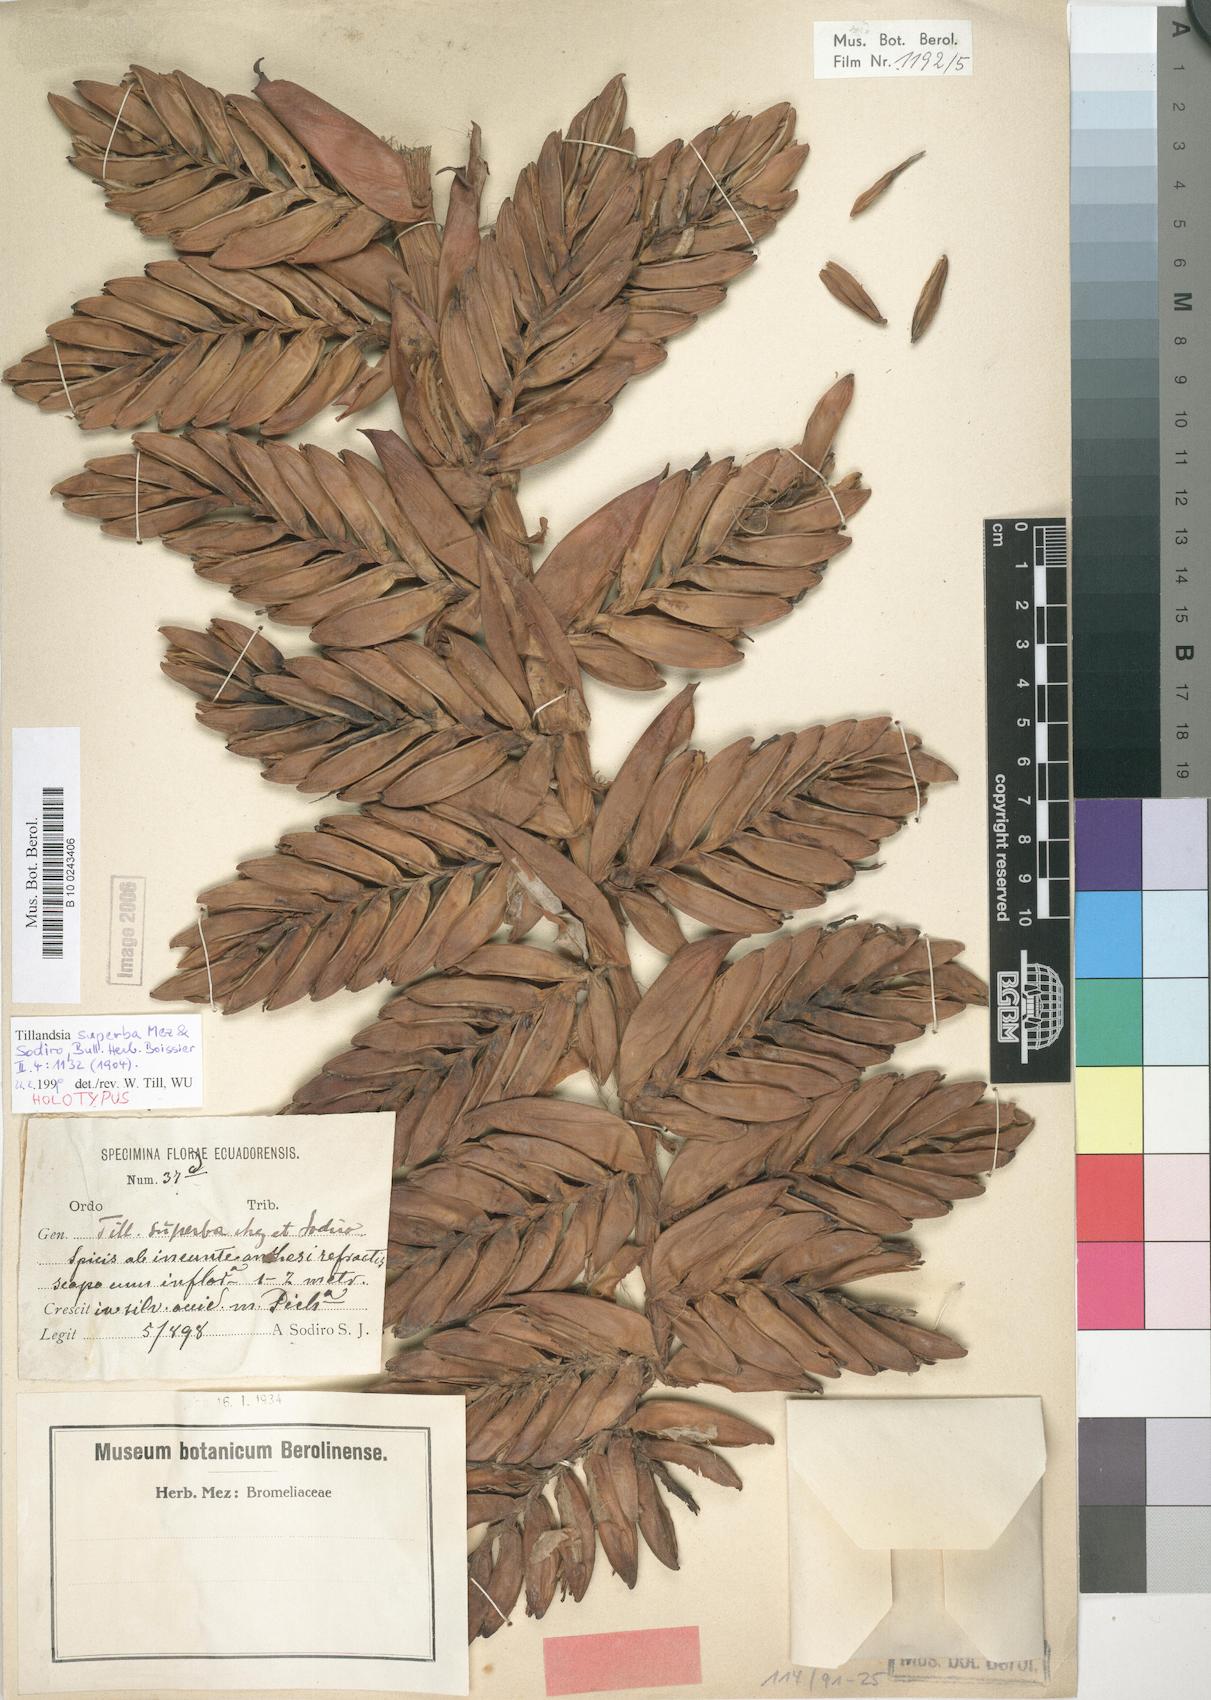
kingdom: Plantae
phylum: Tracheophyta
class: Liliopsida
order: Poales
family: Bromeliaceae
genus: Tillandsia
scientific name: Tillandsia superba
